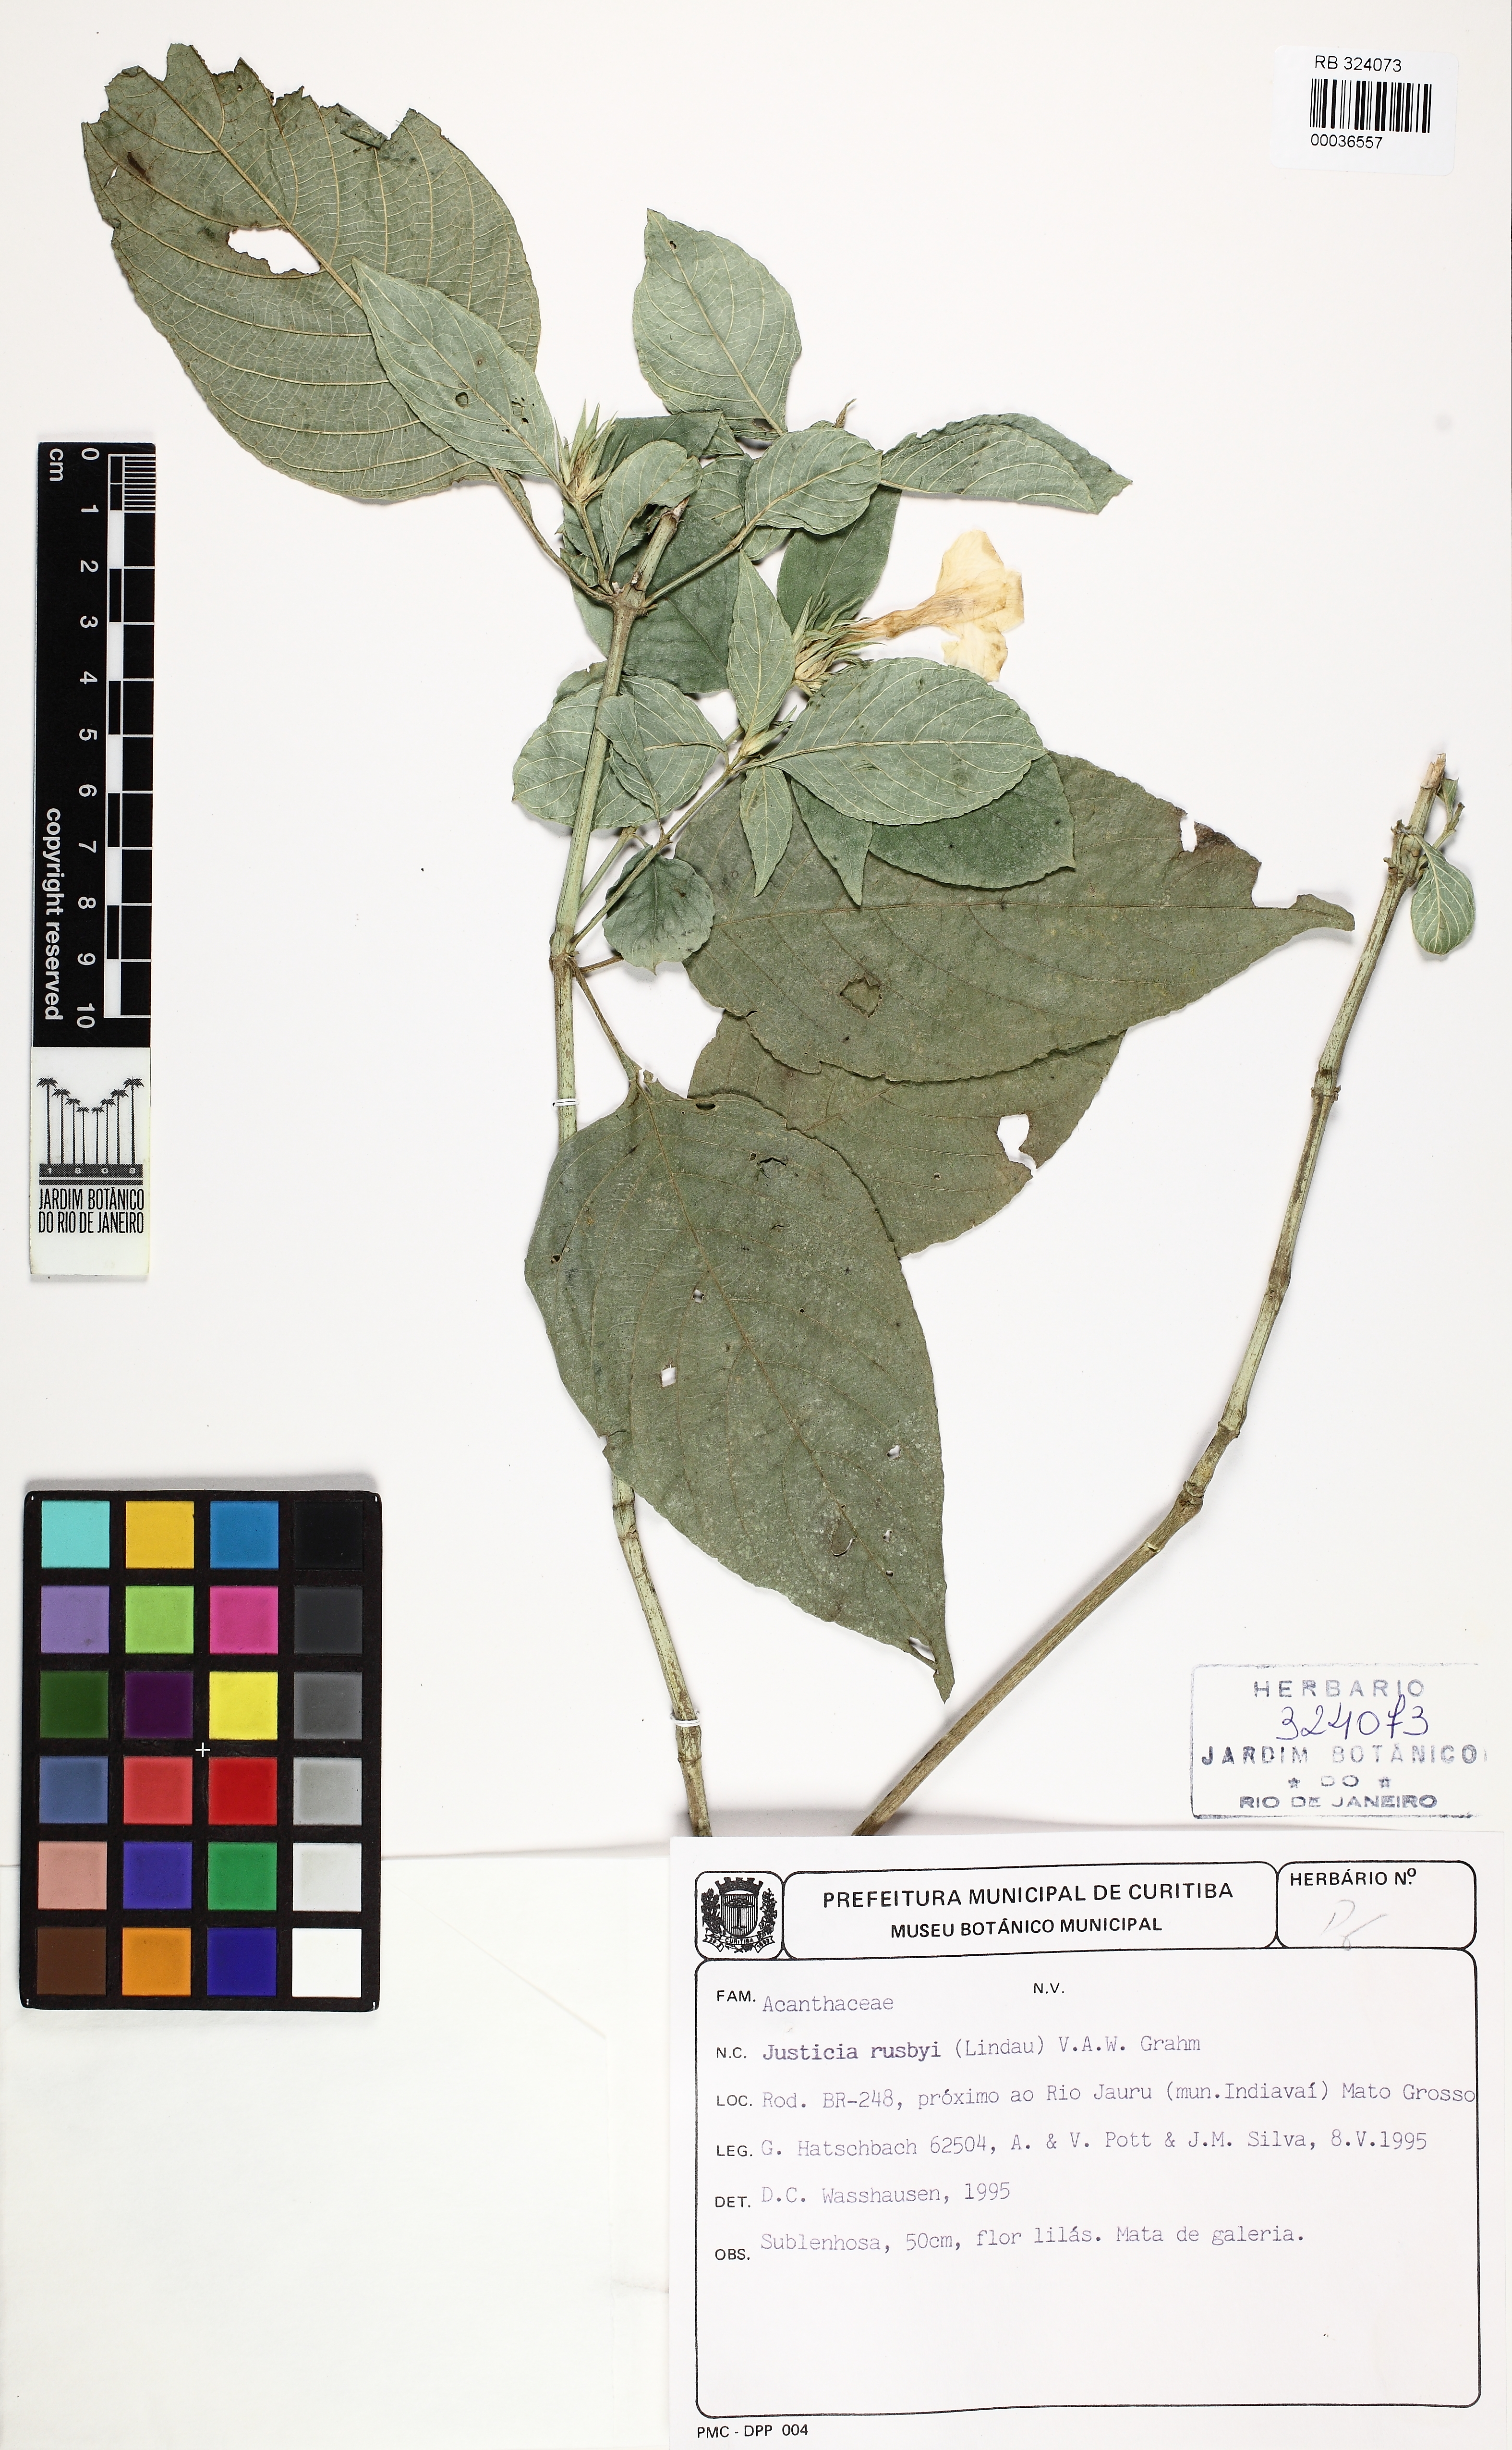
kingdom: Plantae
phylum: Tracheophyta
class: Magnoliopsida
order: Lamiales
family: Acanthaceae
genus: Justicia
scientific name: Justicia rusbyi
